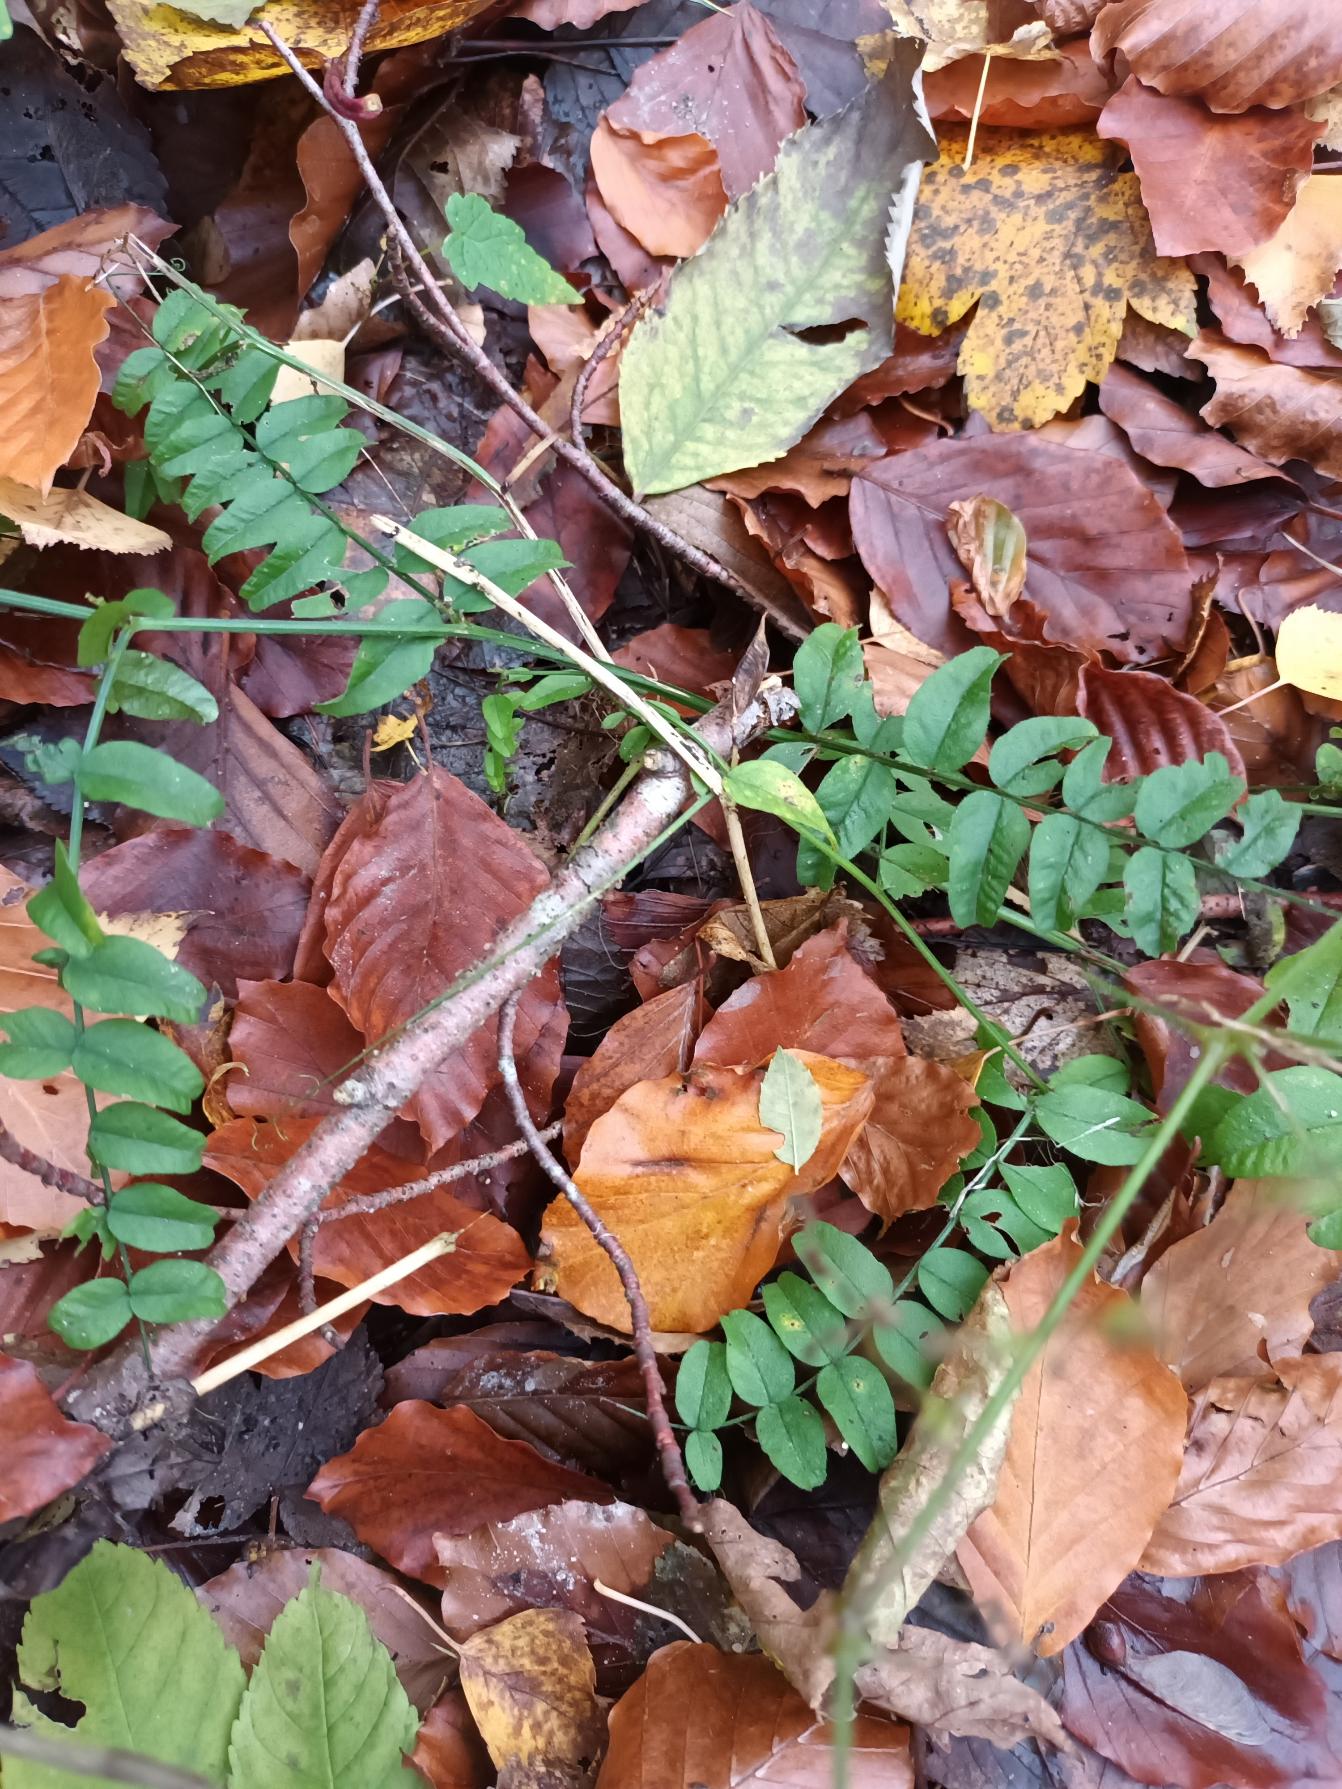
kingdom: Plantae
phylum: Tracheophyta
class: Magnoliopsida
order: Fabales
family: Fabaceae
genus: Vicia
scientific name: Vicia sepium
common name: Gærde-vikke
